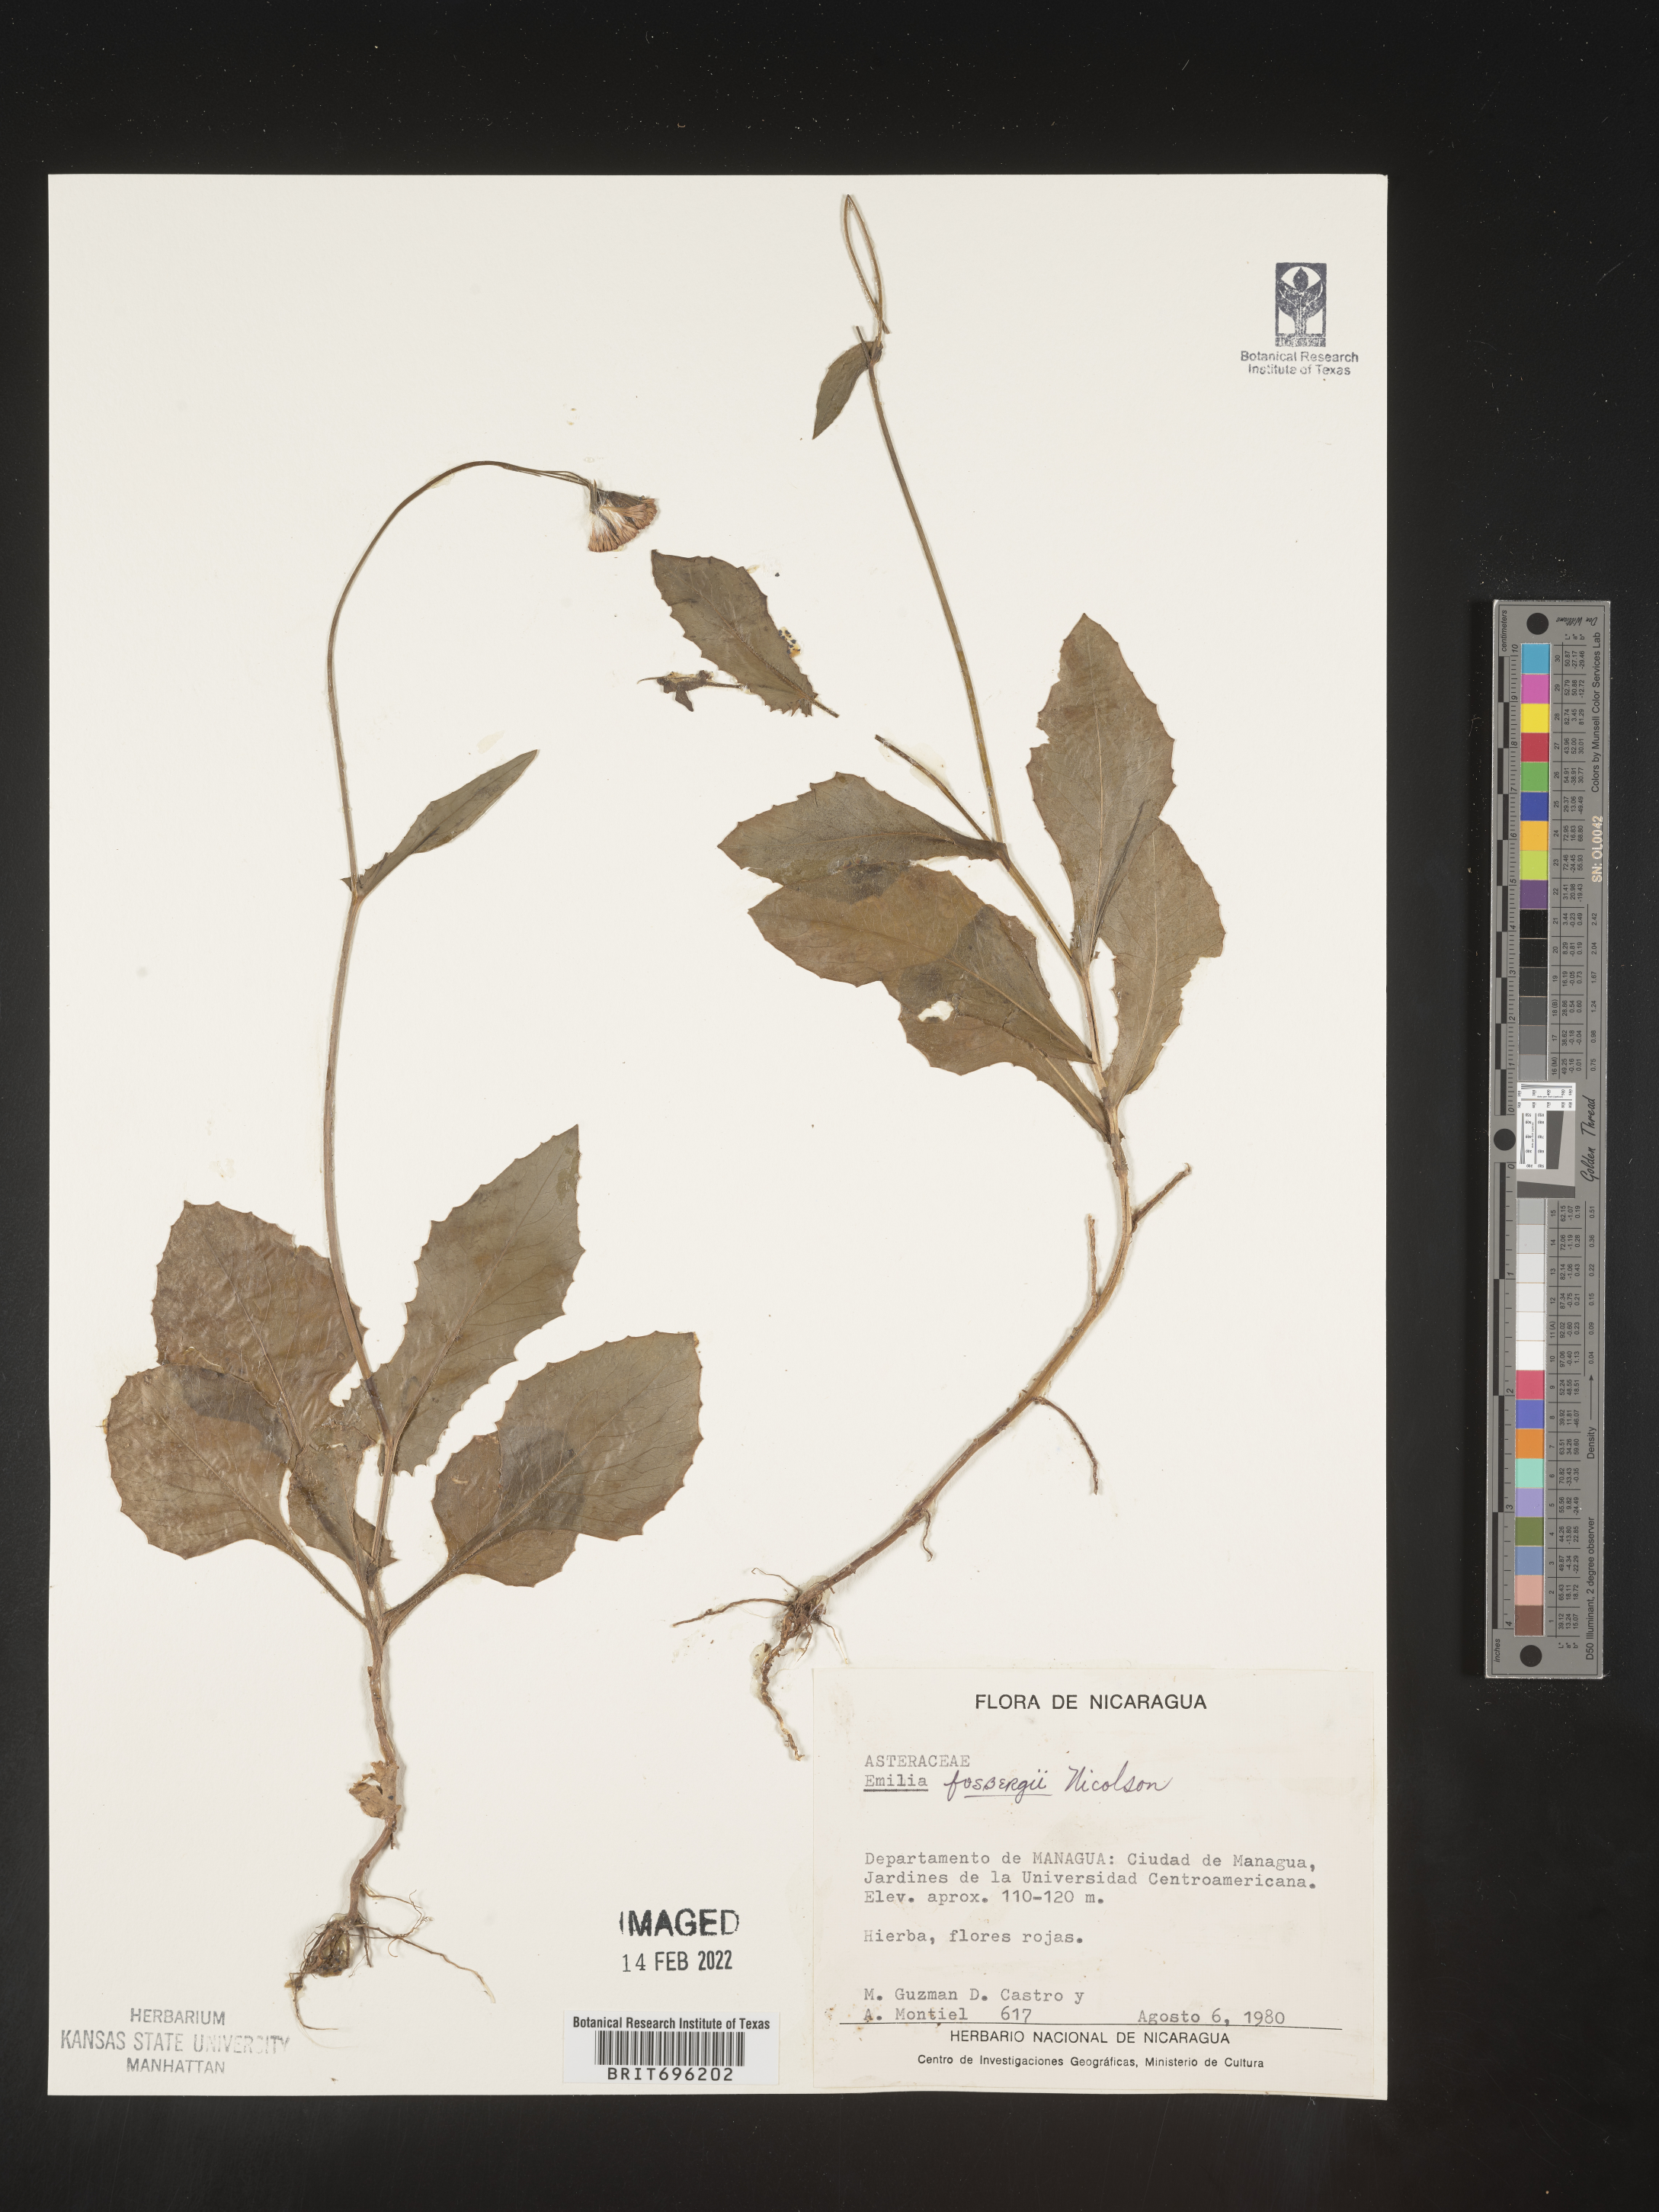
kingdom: Plantae
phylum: Tracheophyta
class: Magnoliopsida
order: Asterales
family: Asteraceae
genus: Emilia
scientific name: Emilia
